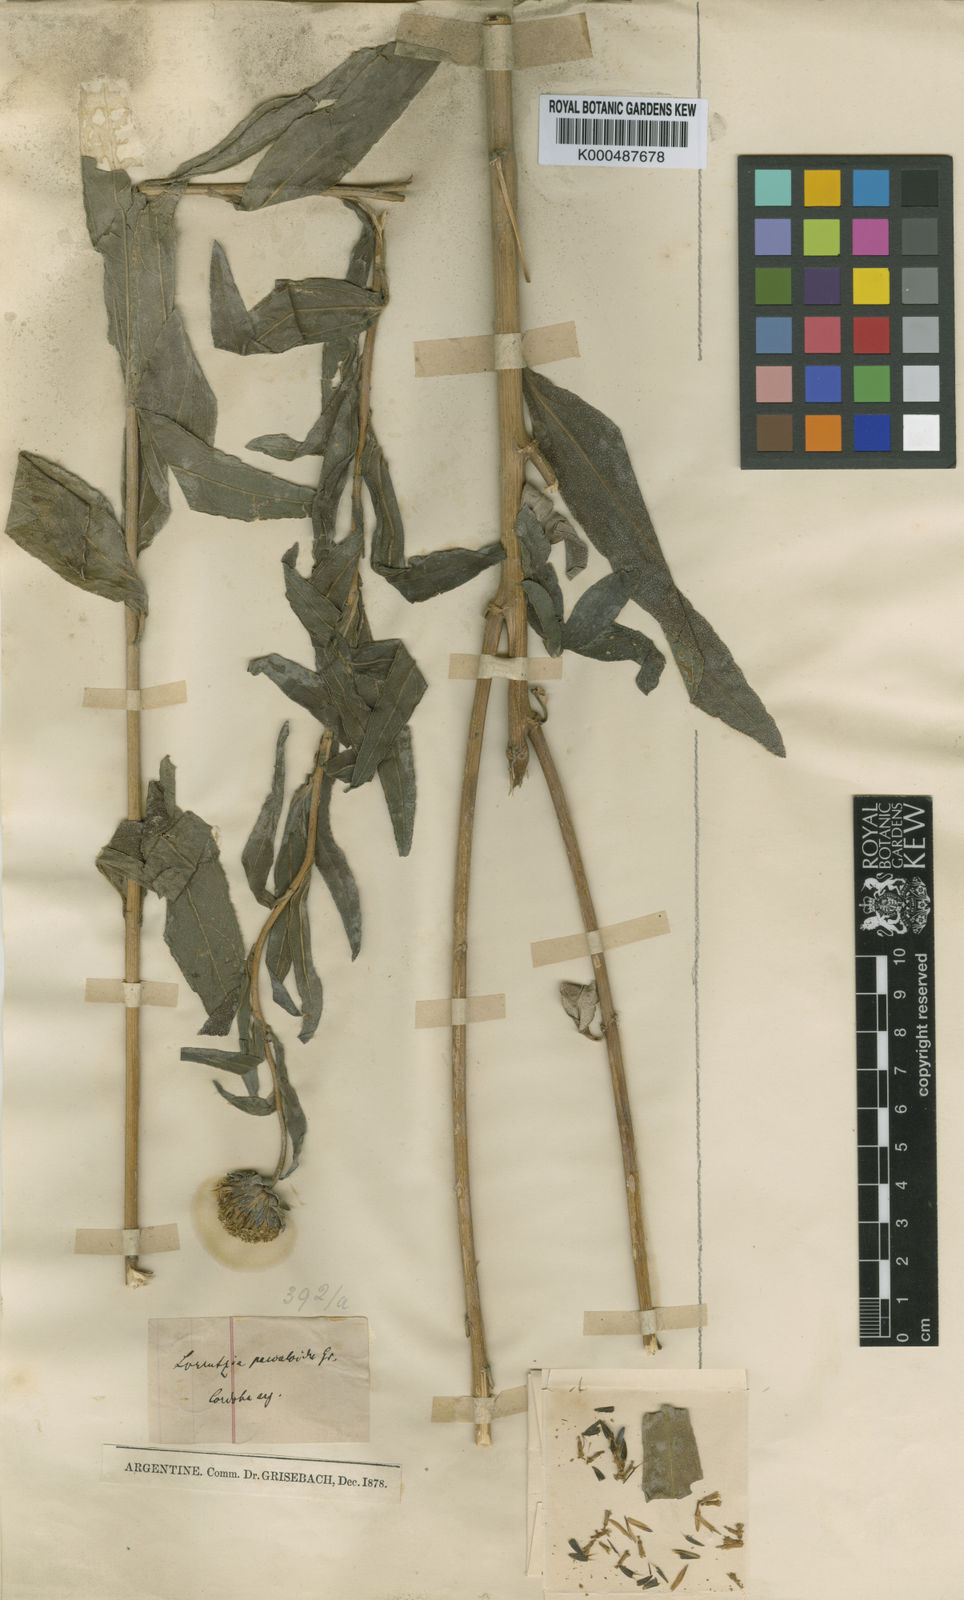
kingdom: Plantae
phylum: Tracheophyta
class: Magnoliopsida
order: Asterales
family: Asteraceae
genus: Wedelia
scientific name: Wedelia pascalioides
